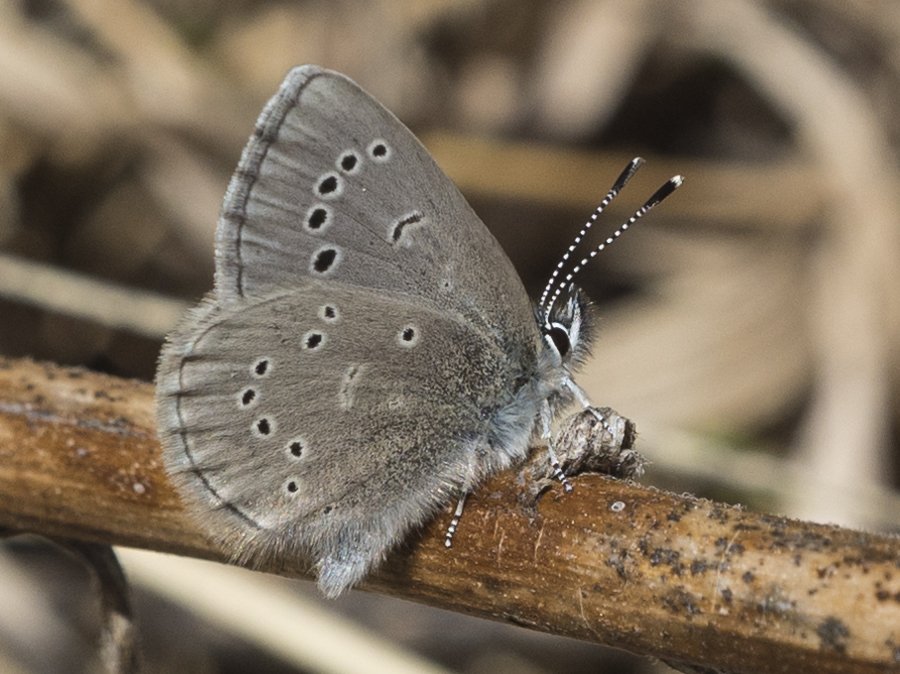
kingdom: Animalia
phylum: Arthropoda
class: Insecta
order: Lepidoptera
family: Lycaenidae
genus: Glaucopsyche
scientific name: Glaucopsyche lygdamus
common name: Silvery Blue
